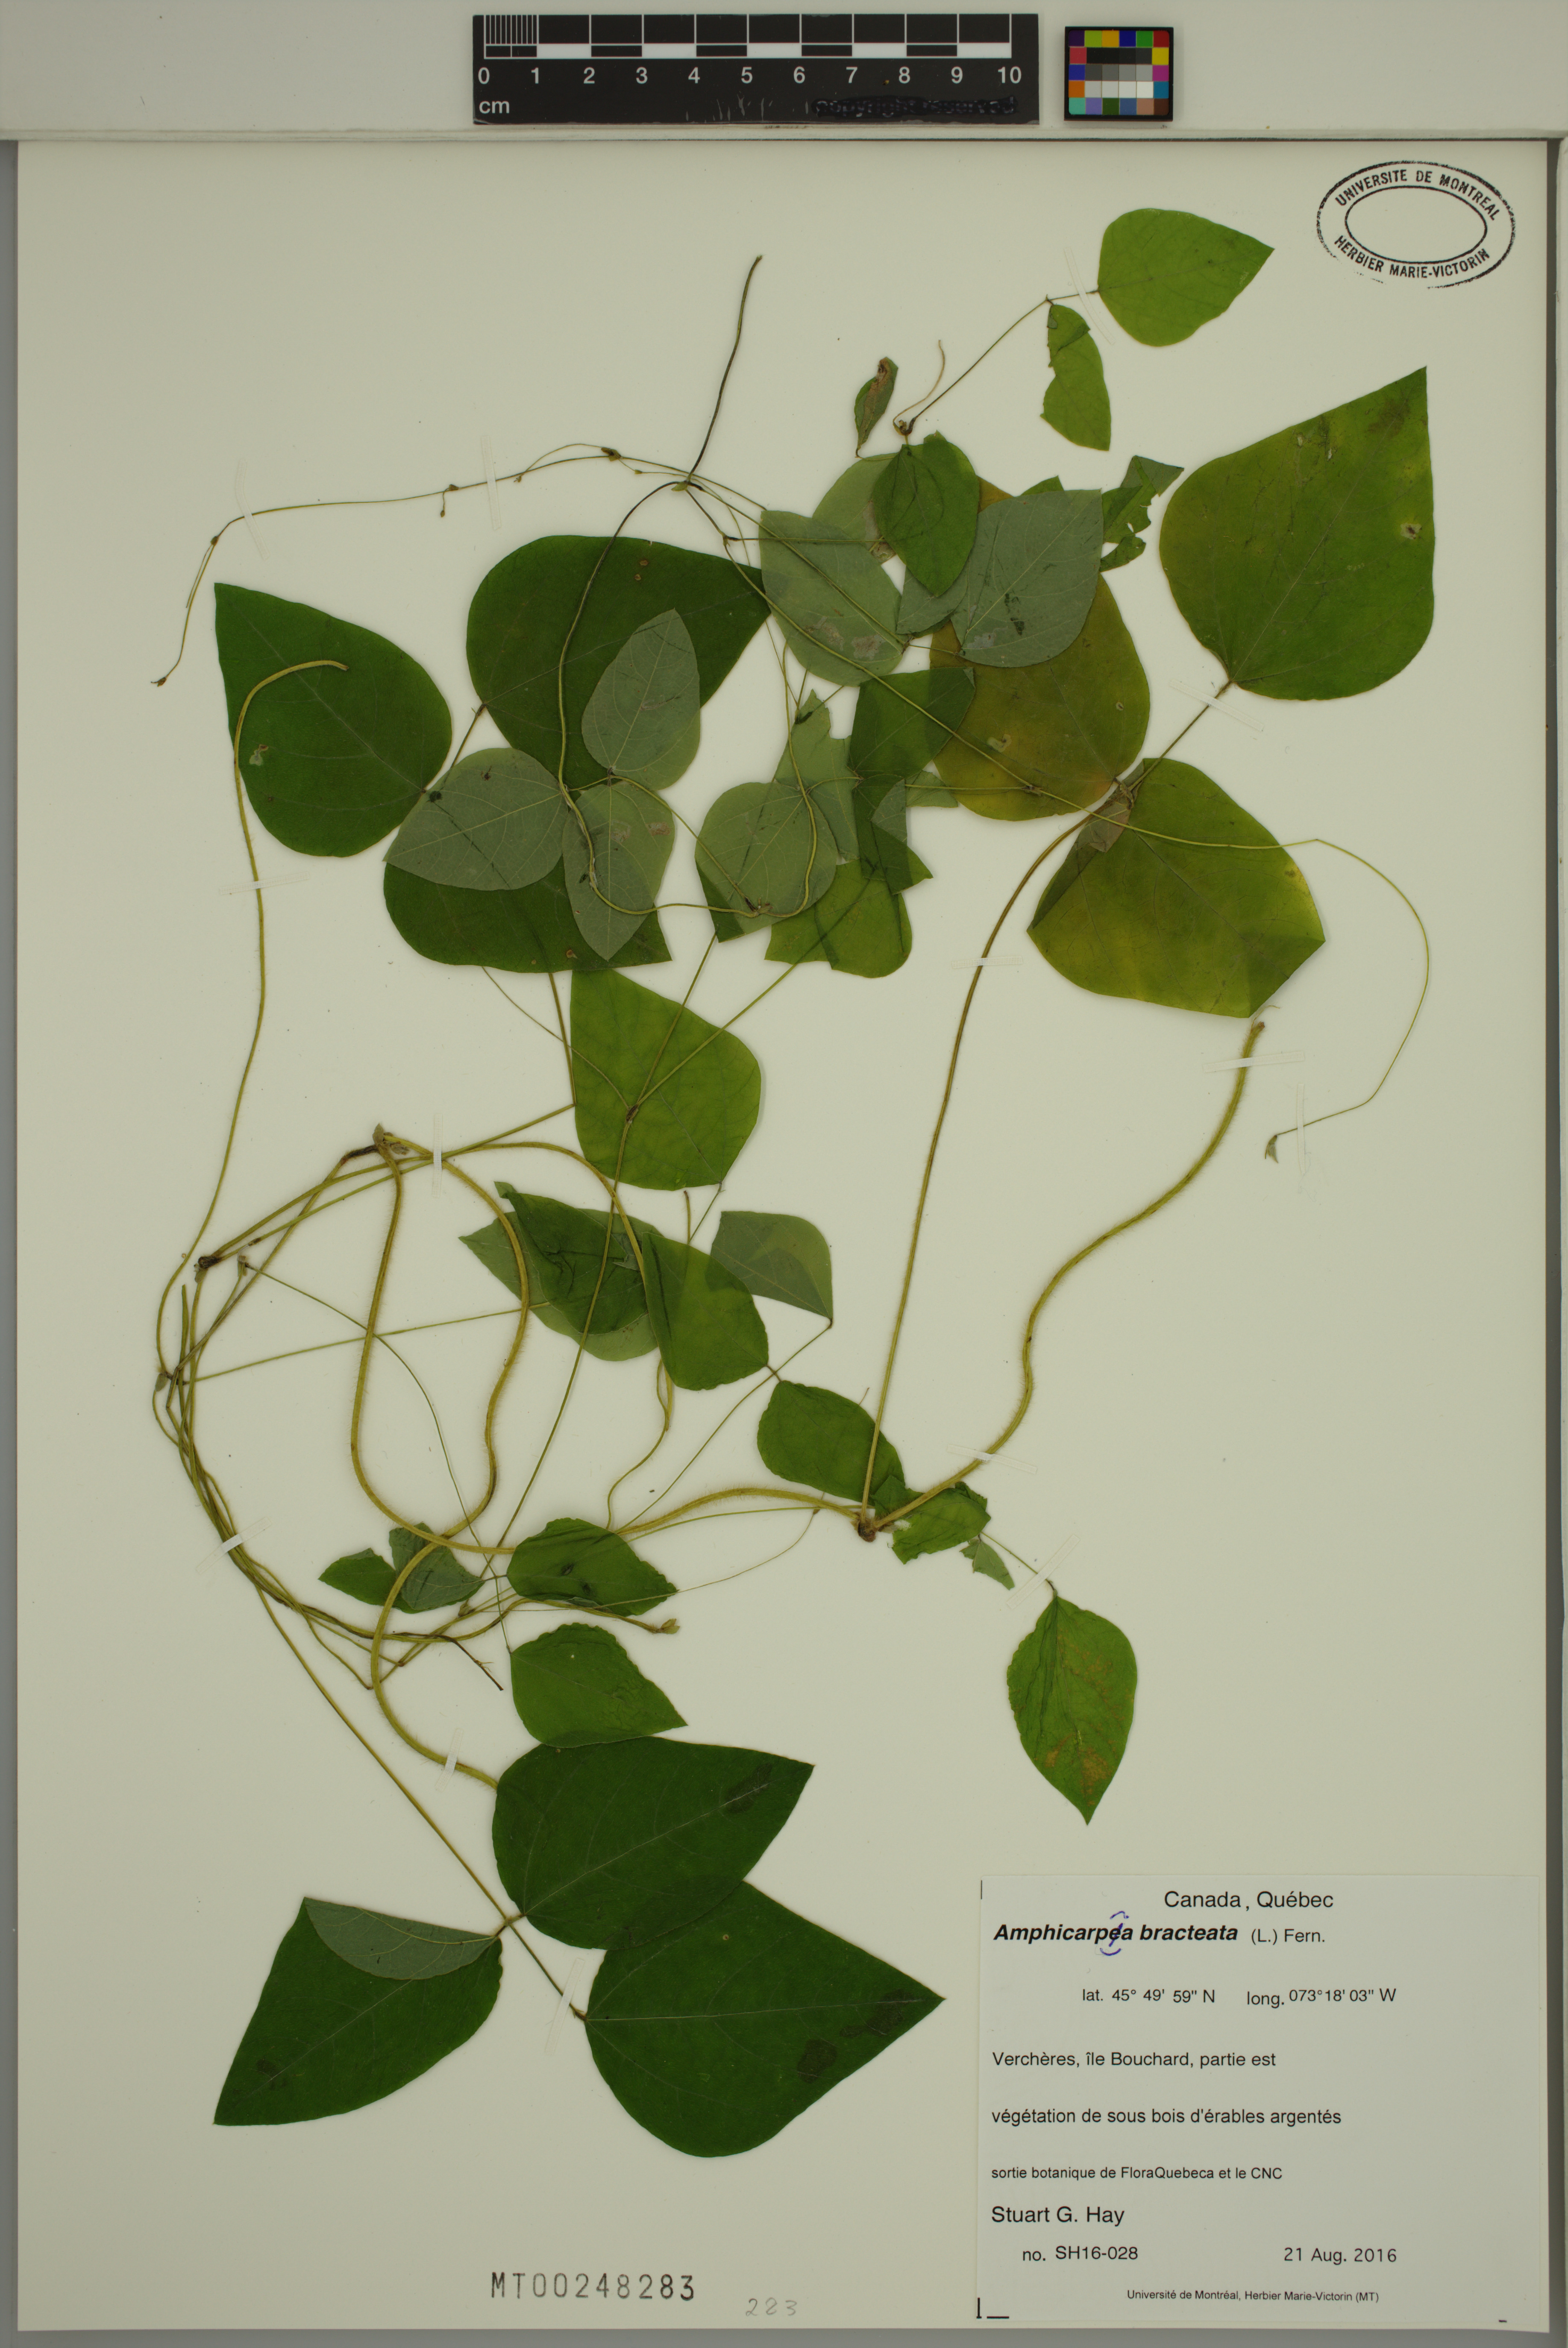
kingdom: Plantae
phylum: Tracheophyta
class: Magnoliopsida
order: Fabales
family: Fabaceae
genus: Amphicarpaea
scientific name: Amphicarpaea bracteata
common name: American hog peanut
